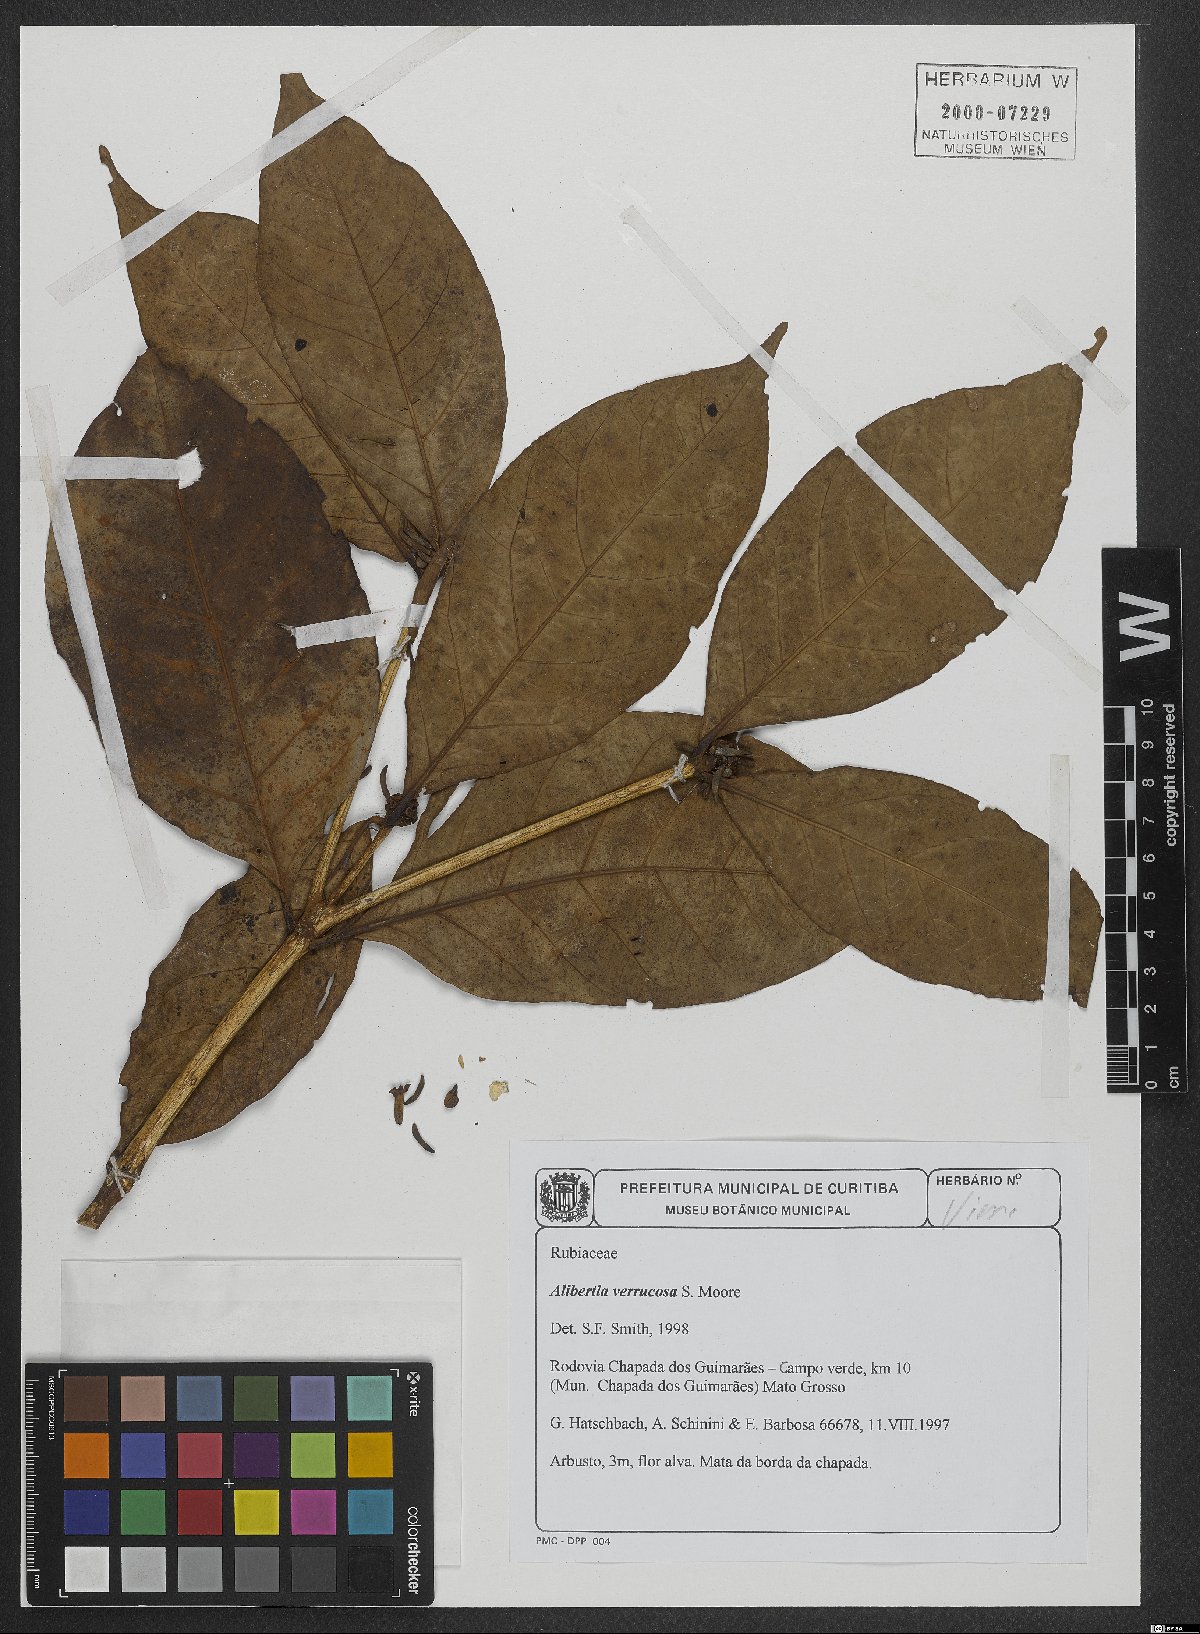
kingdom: Plantae
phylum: Tracheophyta
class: Magnoliopsida
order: Gentianales
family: Rubiaceae
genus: Cordiera
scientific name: Cordiera macrophylla
